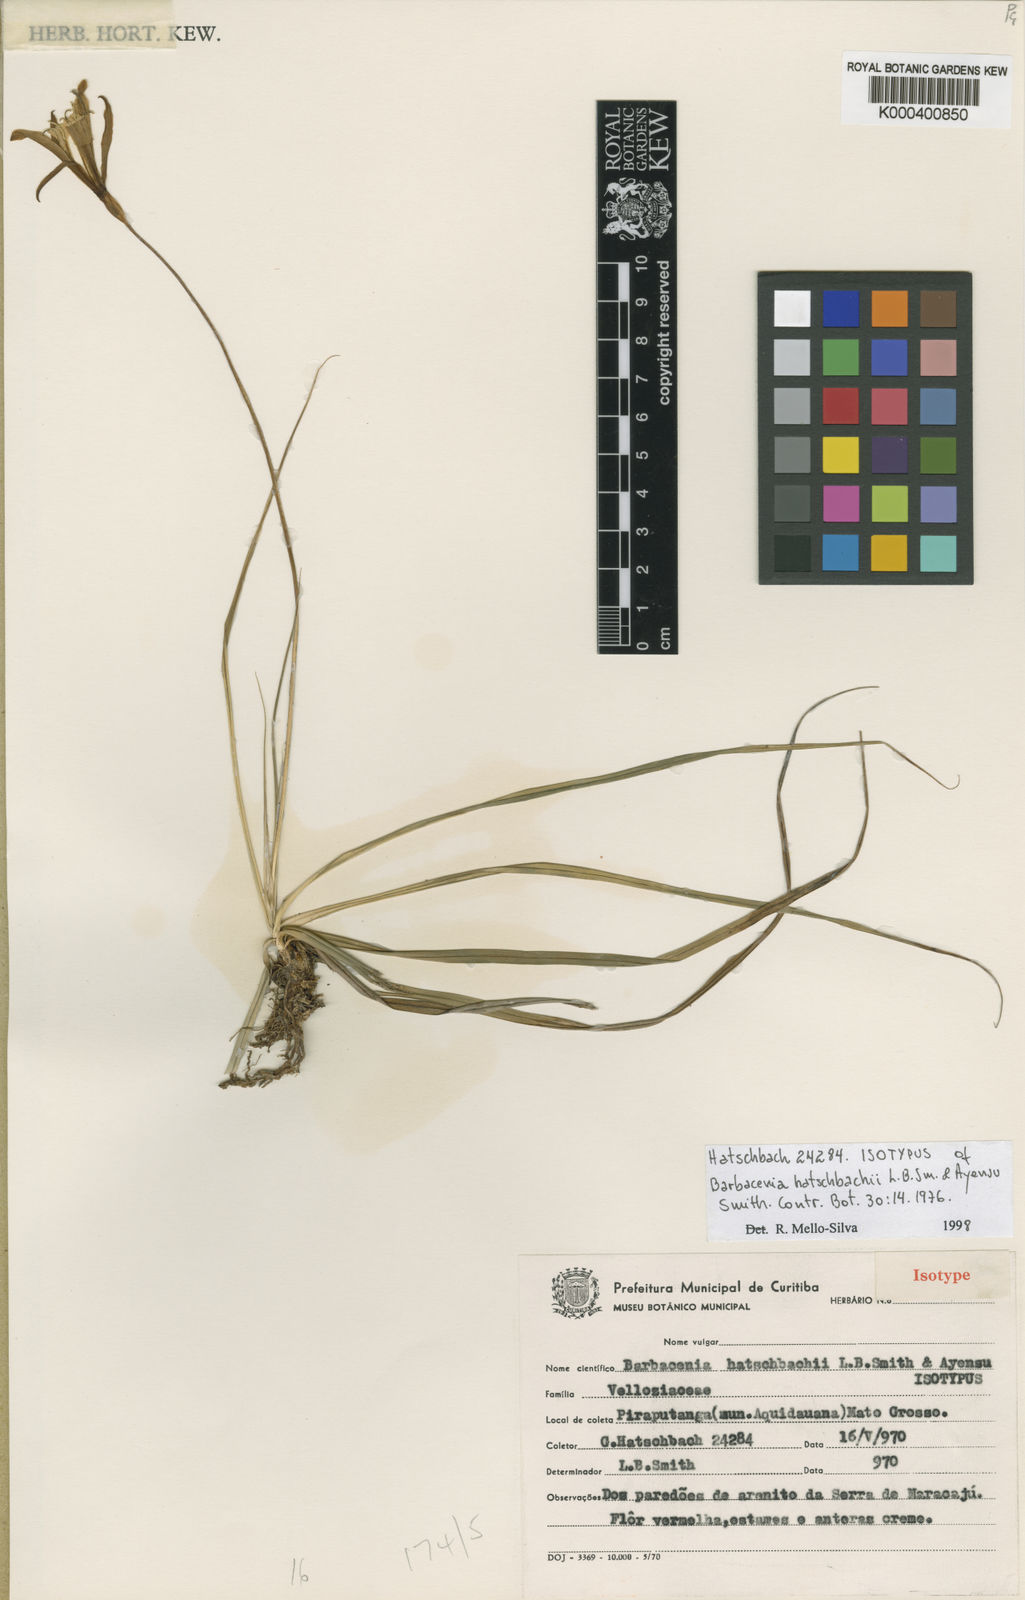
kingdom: Plantae
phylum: Tracheophyta
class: Liliopsida
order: Pandanales
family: Velloziaceae
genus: Barbacenia
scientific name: Barbacenia hatschbachii
